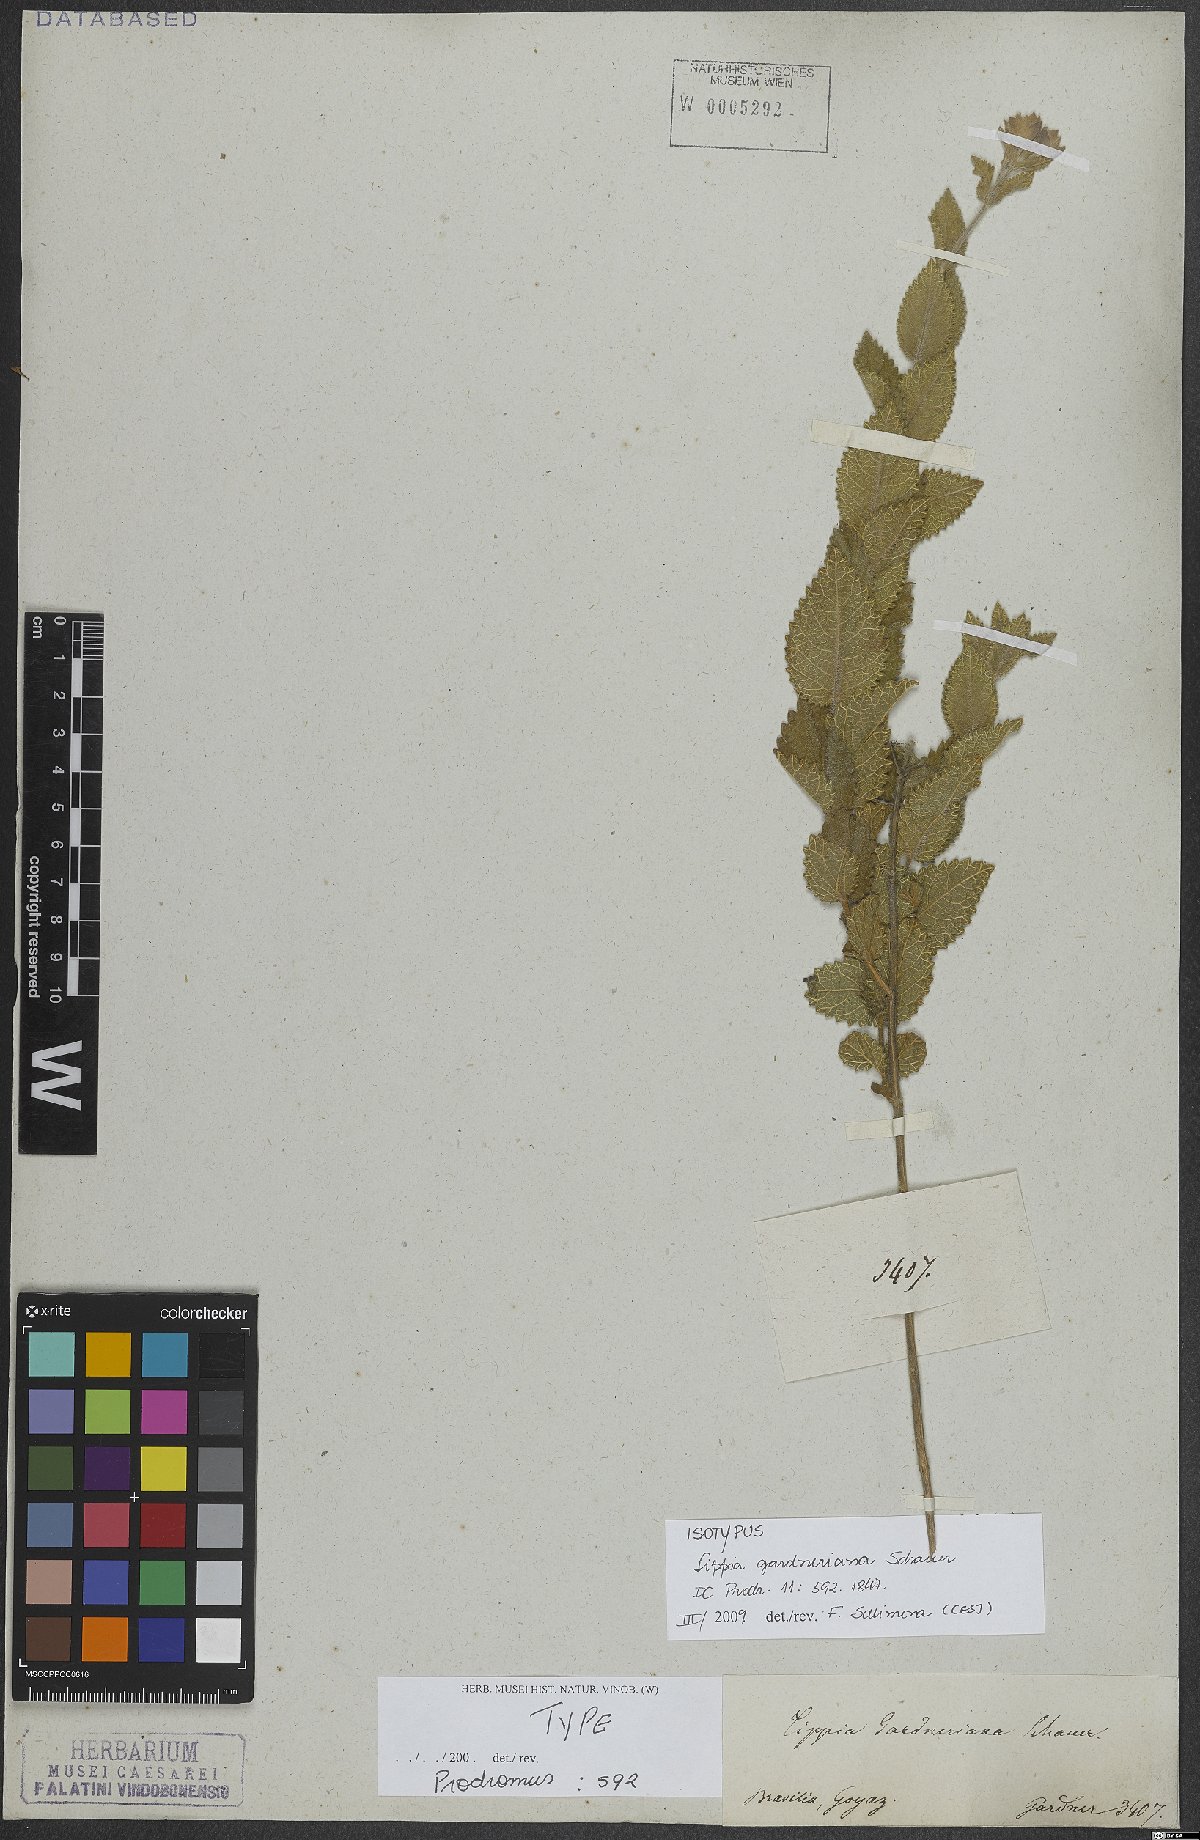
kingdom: Plantae
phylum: Tracheophyta
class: Magnoliopsida
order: Lamiales
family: Verbenaceae
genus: Lippia
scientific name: Lippia gardneriana
